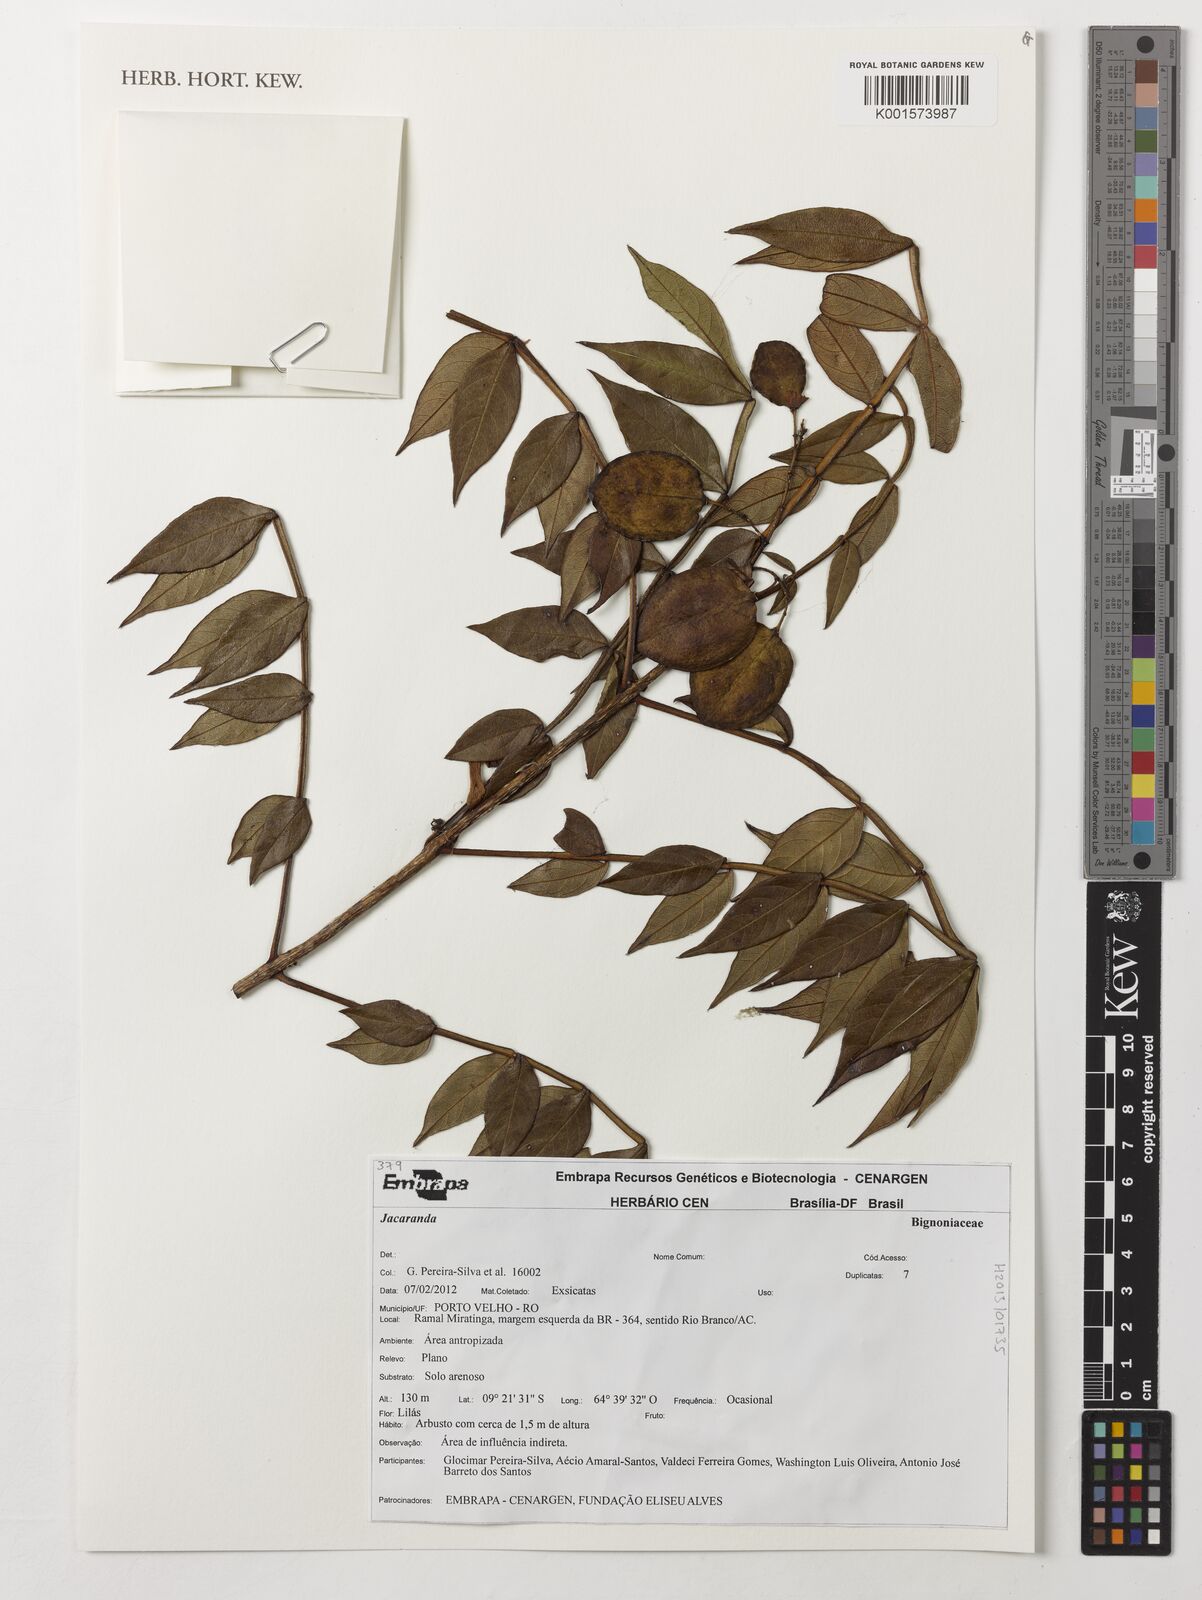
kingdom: Plantae
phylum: Tracheophyta
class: Magnoliopsida
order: Lamiales
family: Bignoniaceae
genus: Jacaranda
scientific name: Jacaranda
